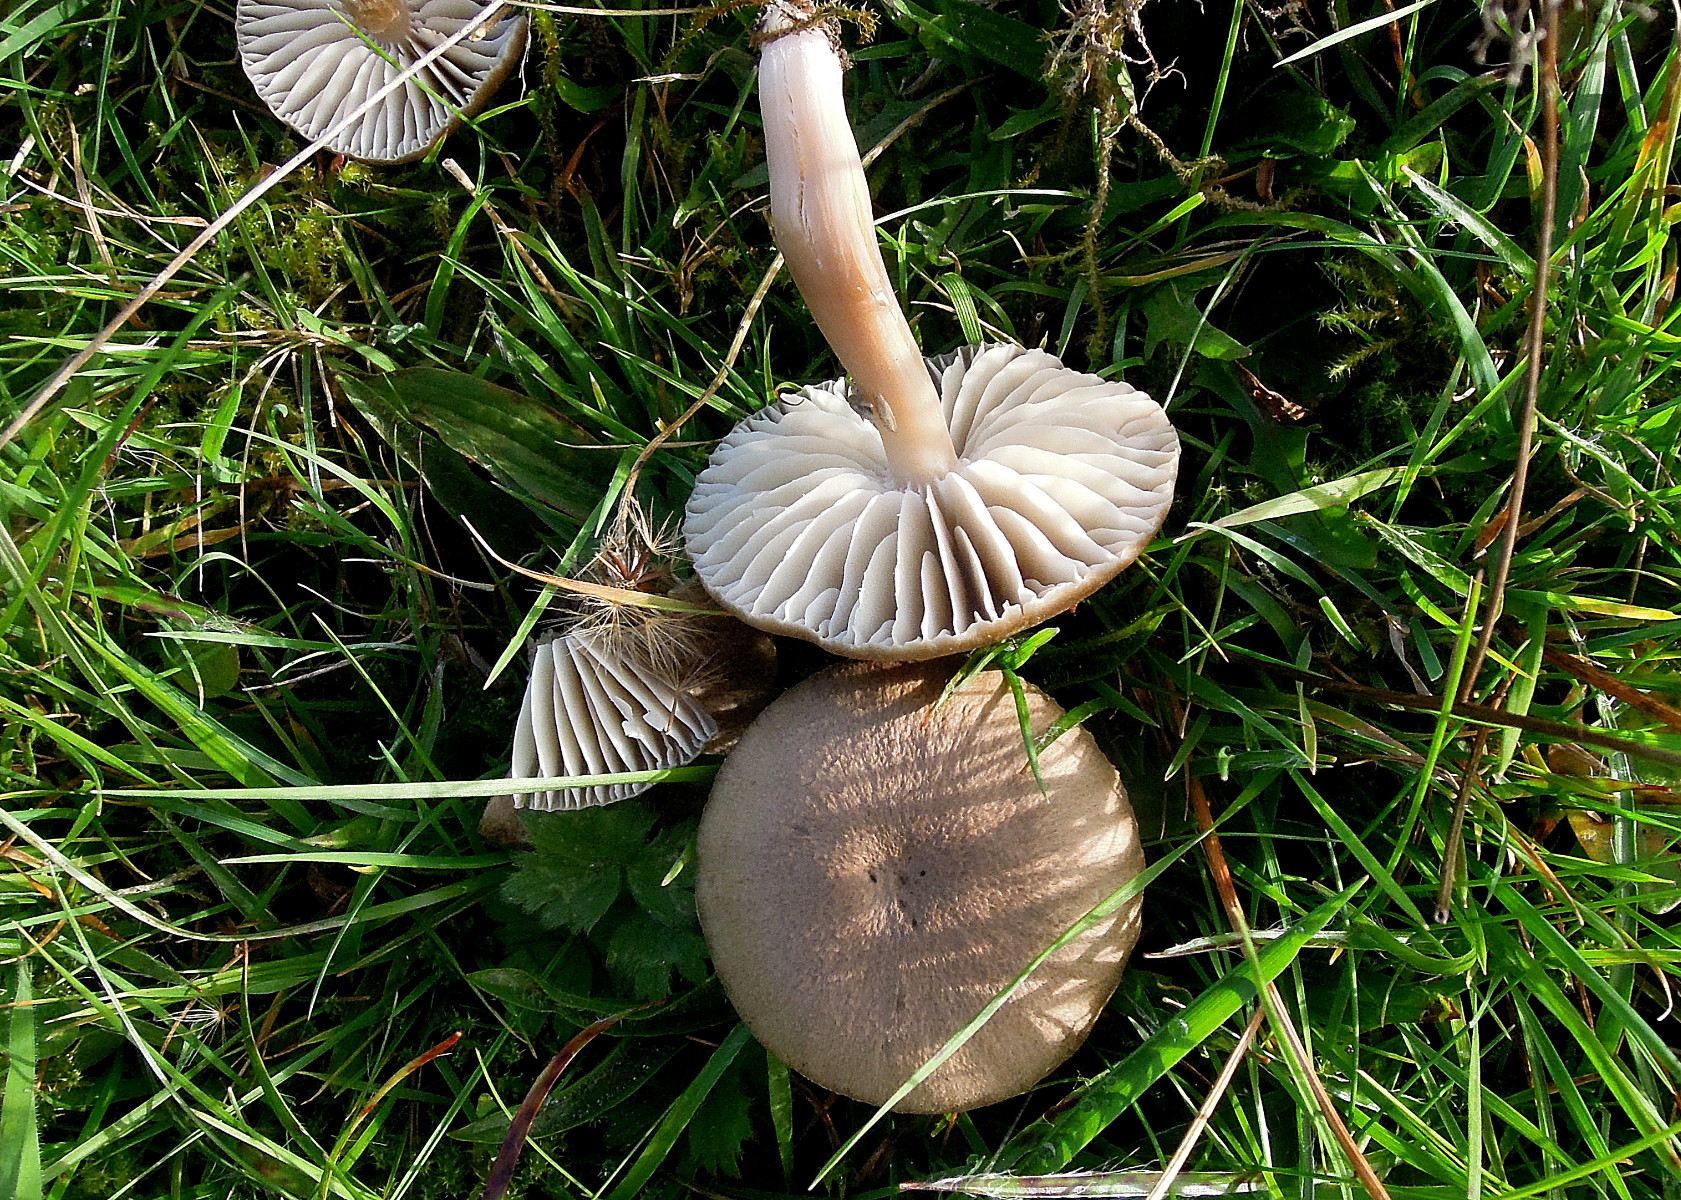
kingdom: Fungi
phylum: Basidiomycota
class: Agaricomycetes
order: Agaricales
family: Hygrophoraceae
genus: Neohygrocybe
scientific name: Neohygrocybe nitrata
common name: stinkende vokshat
